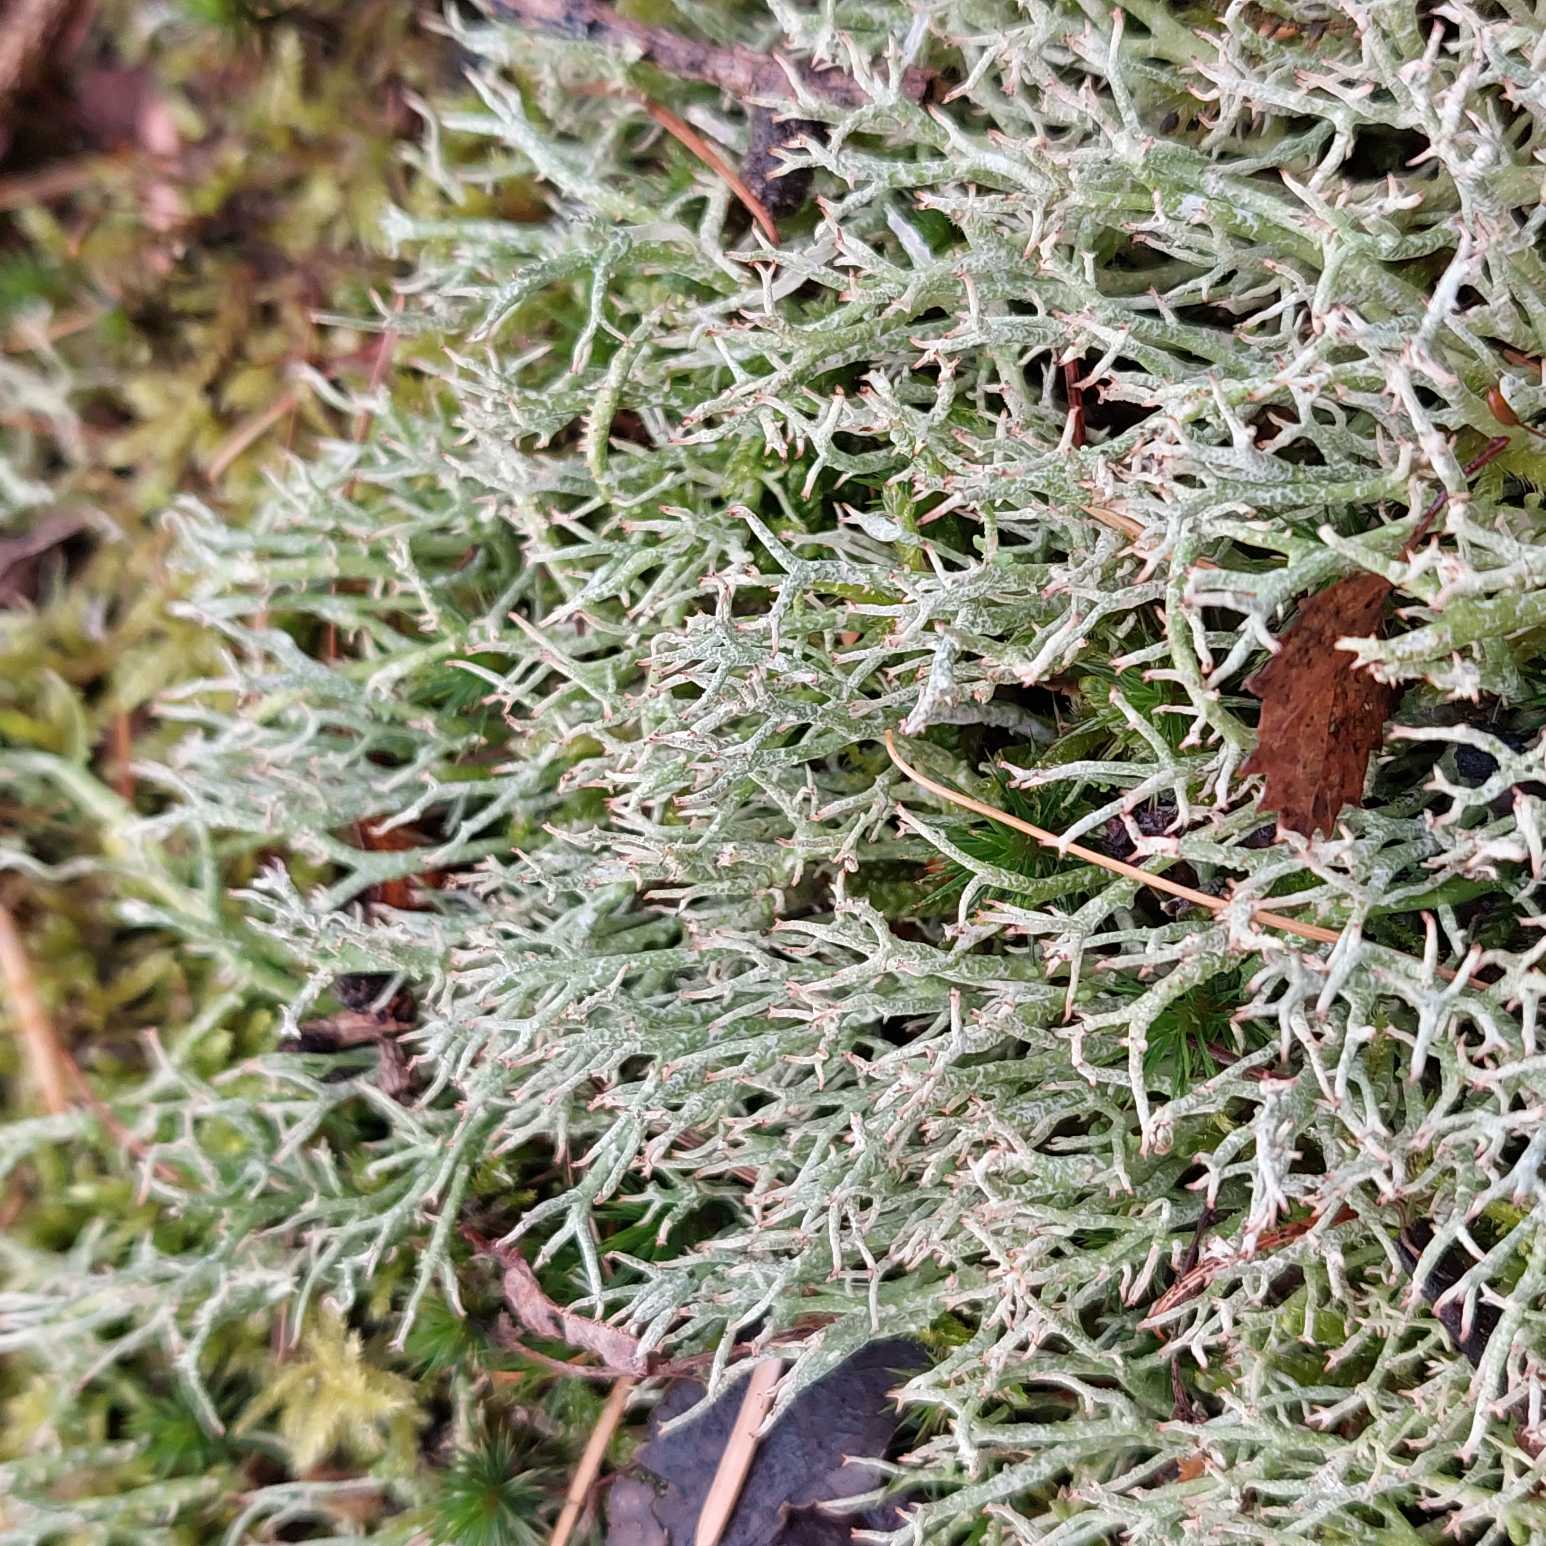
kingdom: Fungi
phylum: Ascomycota
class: Lecanoromycetes
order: Lecanorales
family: Cladoniaceae
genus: Cladonia
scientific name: Cladonia rangiformis
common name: Spættet bægerlav
